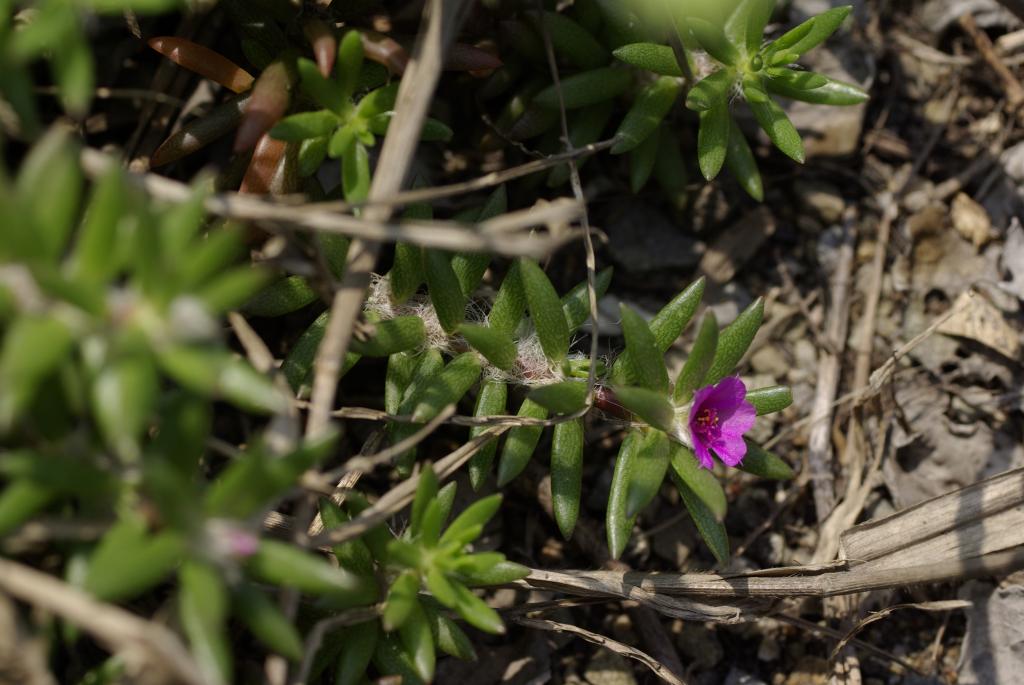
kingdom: Plantae
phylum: Tracheophyta
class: Magnoliopsida
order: Caryophyllales
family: Portulacaceae
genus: Portulaca
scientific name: Portulaca pilosa
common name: Kiss me quick
